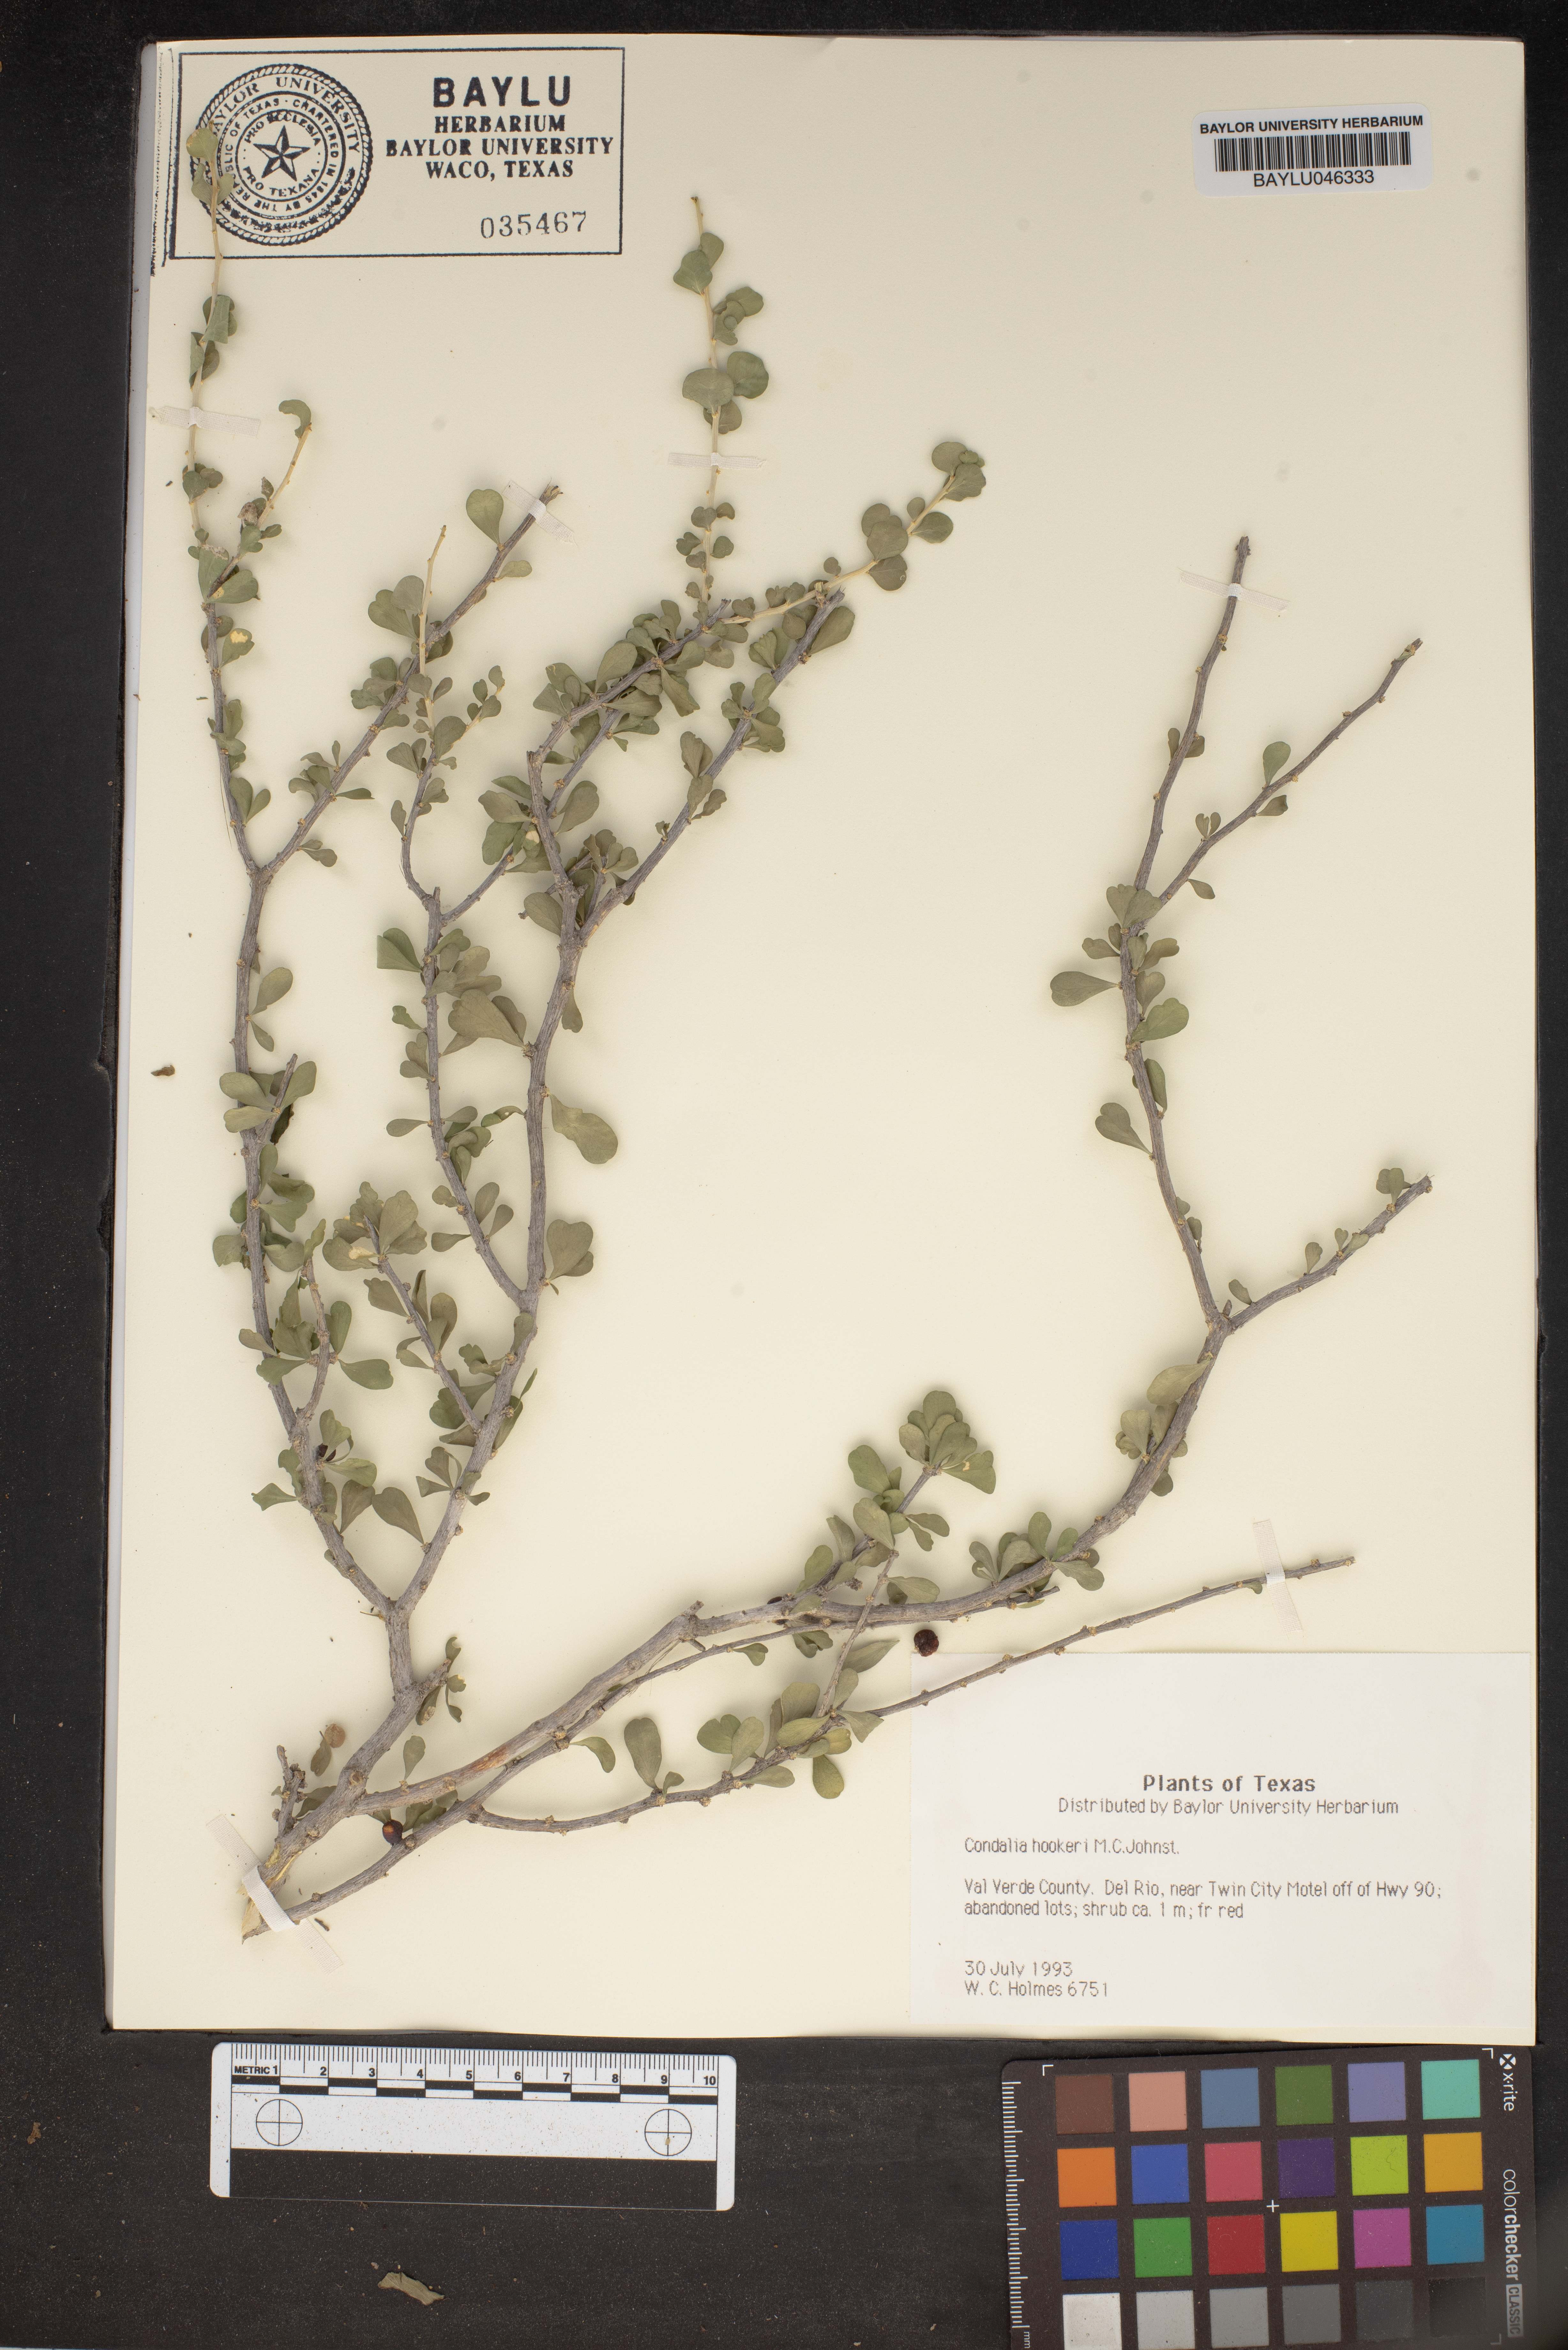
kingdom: Plantae
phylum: Tracheophyta
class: Magnoliopsida
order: Rosales
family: Rhamnaceae
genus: Condalia
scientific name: Condalia hookeri
